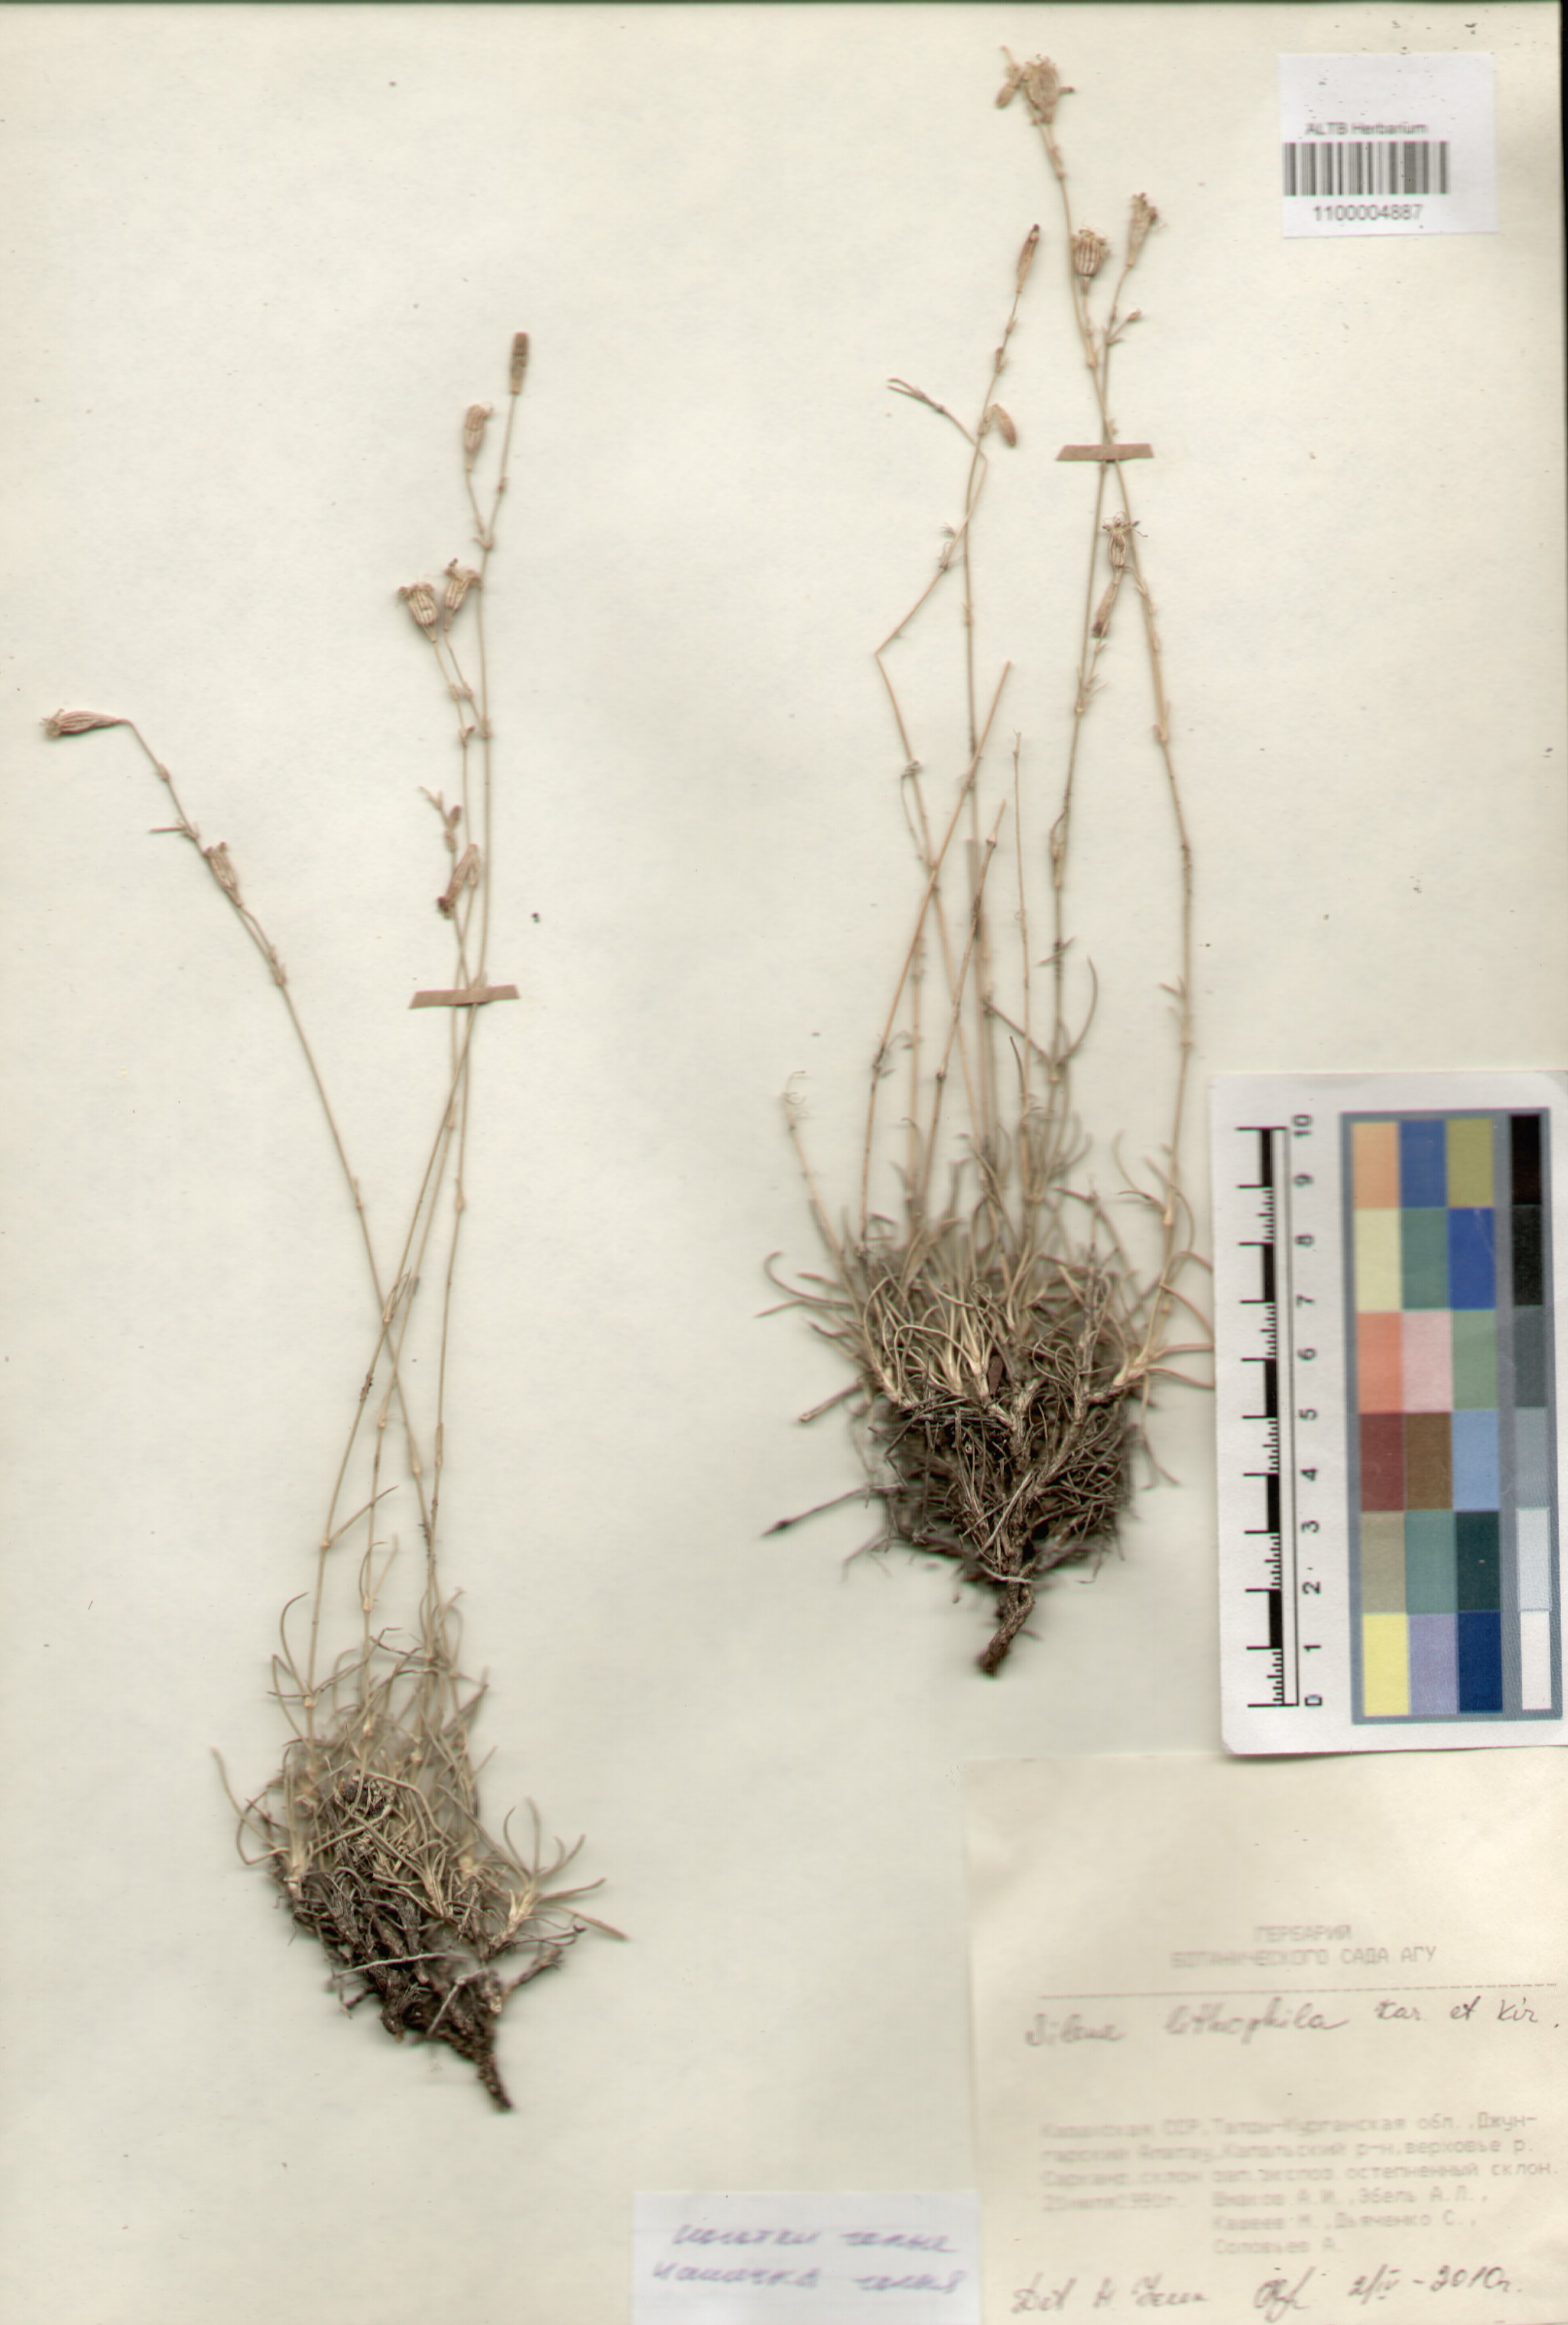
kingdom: Plantae
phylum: Tracheophyta
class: Magnoliopsida
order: Caryophyllales
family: Caryophyllaceae
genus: Silene
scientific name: Silene lithophila
